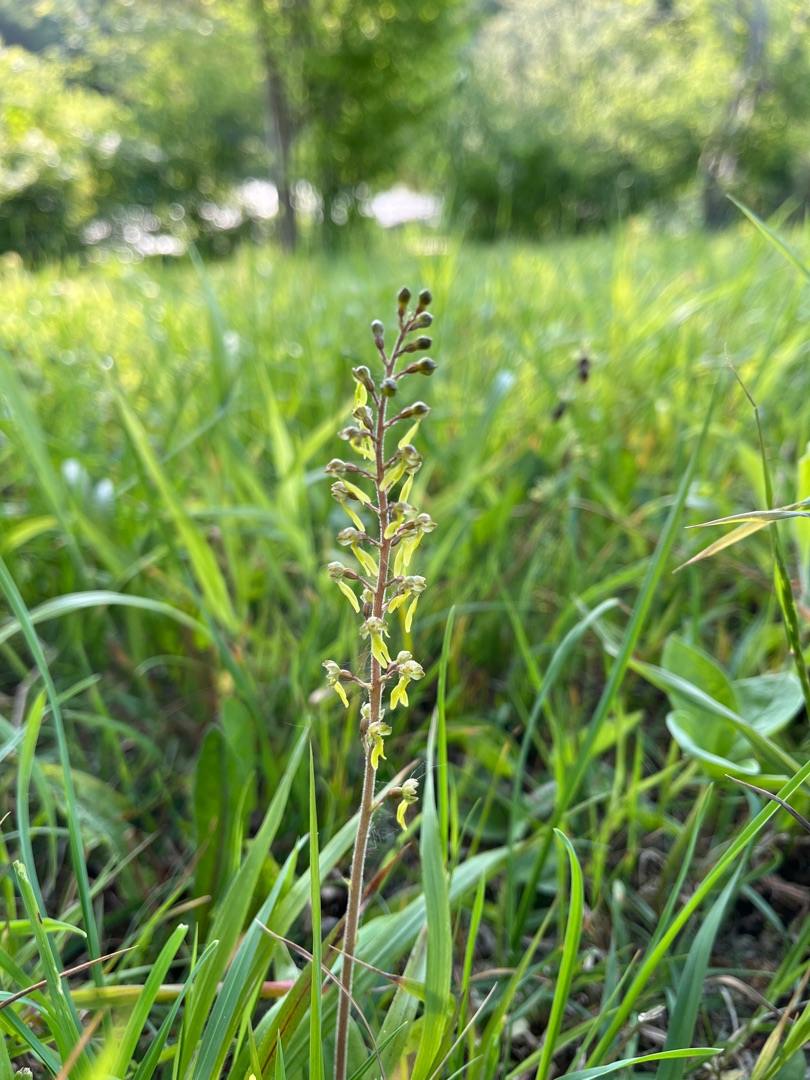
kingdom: Plantae
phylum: Tracheophyta
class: Liliopsida
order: Asparagales
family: Orchidaceae
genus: Neottia
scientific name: Neottia ovata
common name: Ægbladet fliglæbe
